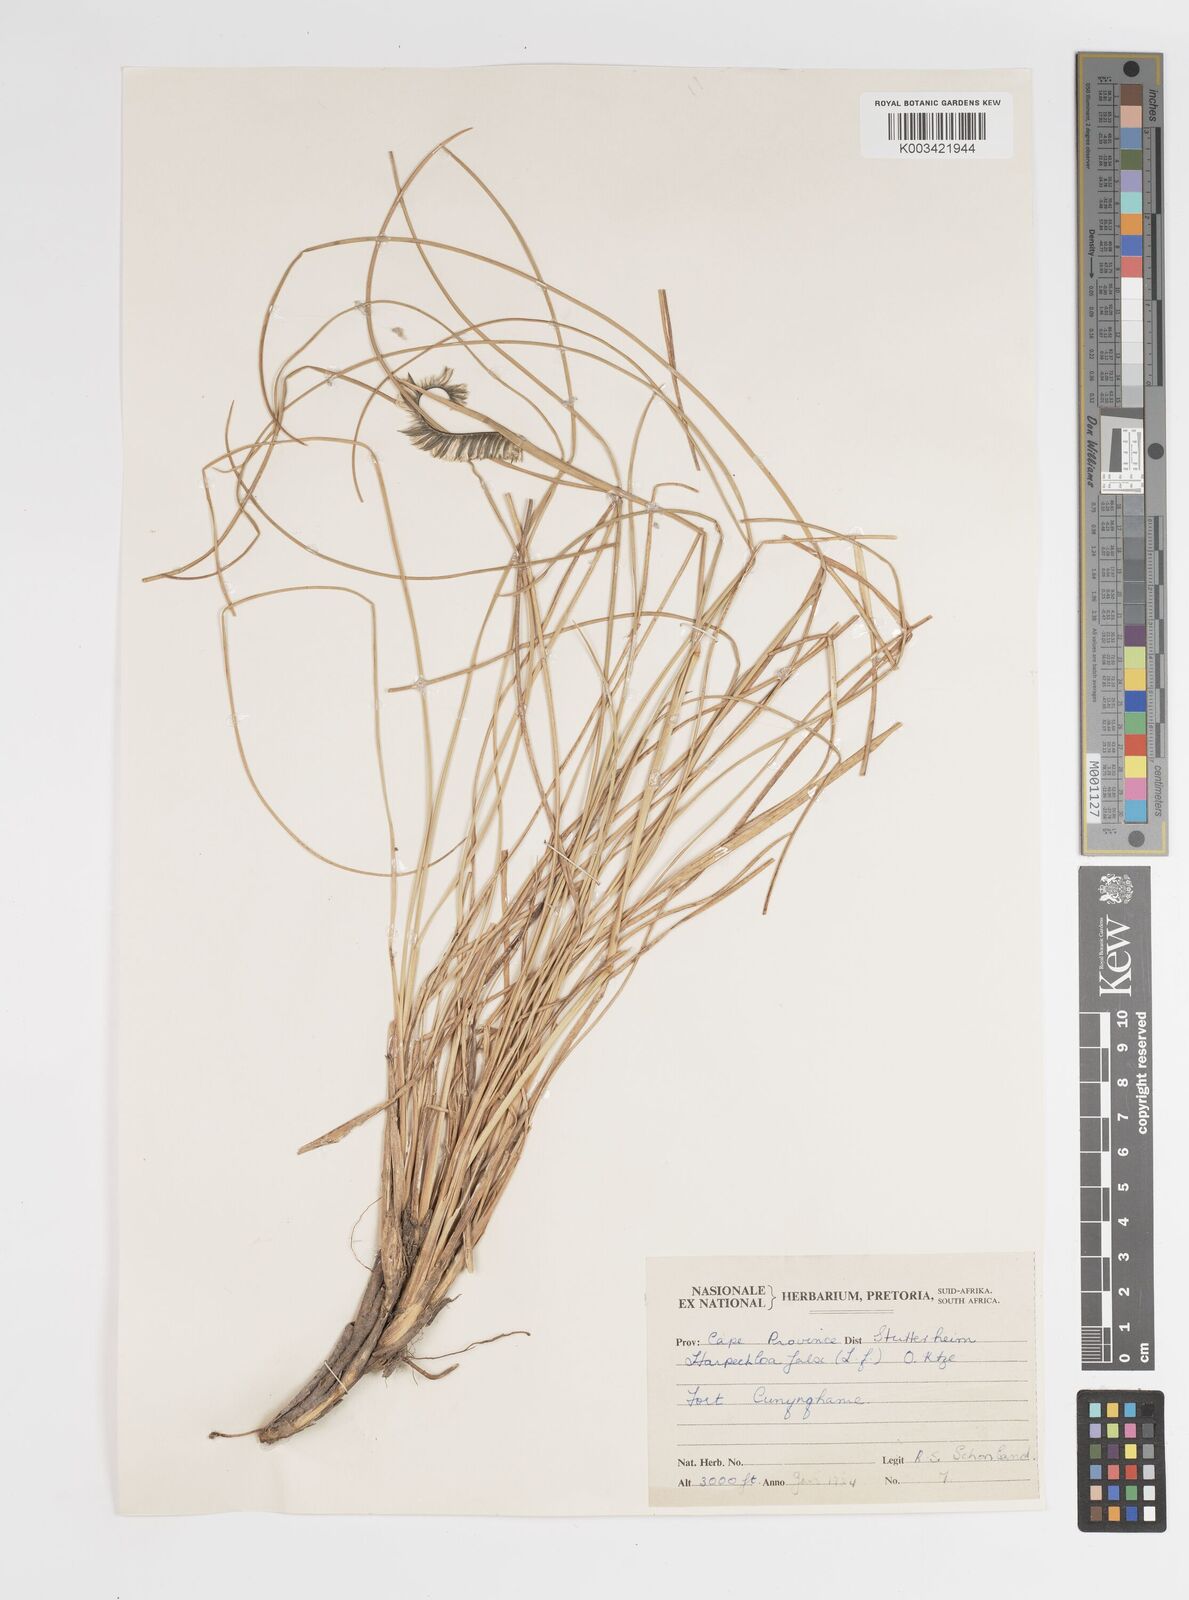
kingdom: Plantae
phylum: Tracheophyta
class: Liliopsida
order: Poales
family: Poaceae
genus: Harpochloa
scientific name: Harpochloa falx
